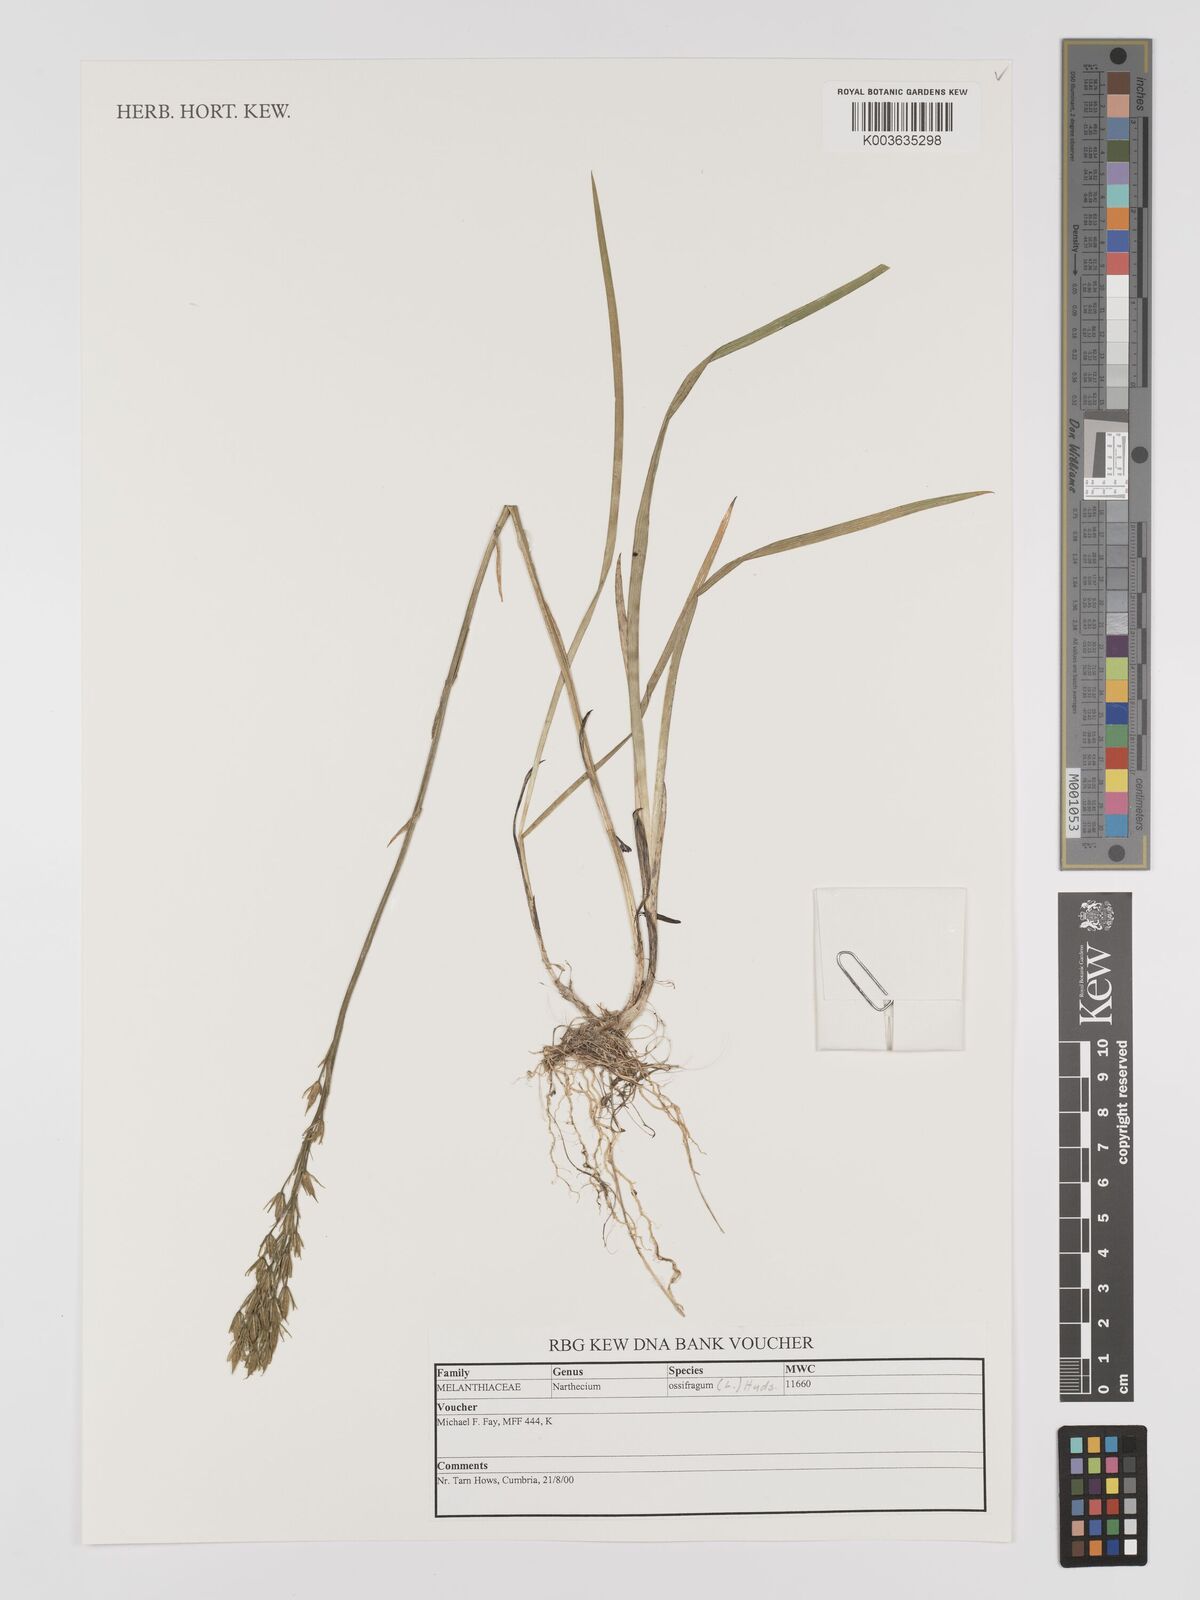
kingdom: Plantae
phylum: Tracheophyta
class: Liliopsida
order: Dioscoreales
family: Nartheciaceae
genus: Narthecium
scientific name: Narthecium ossifragum
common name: Bog asphodel
